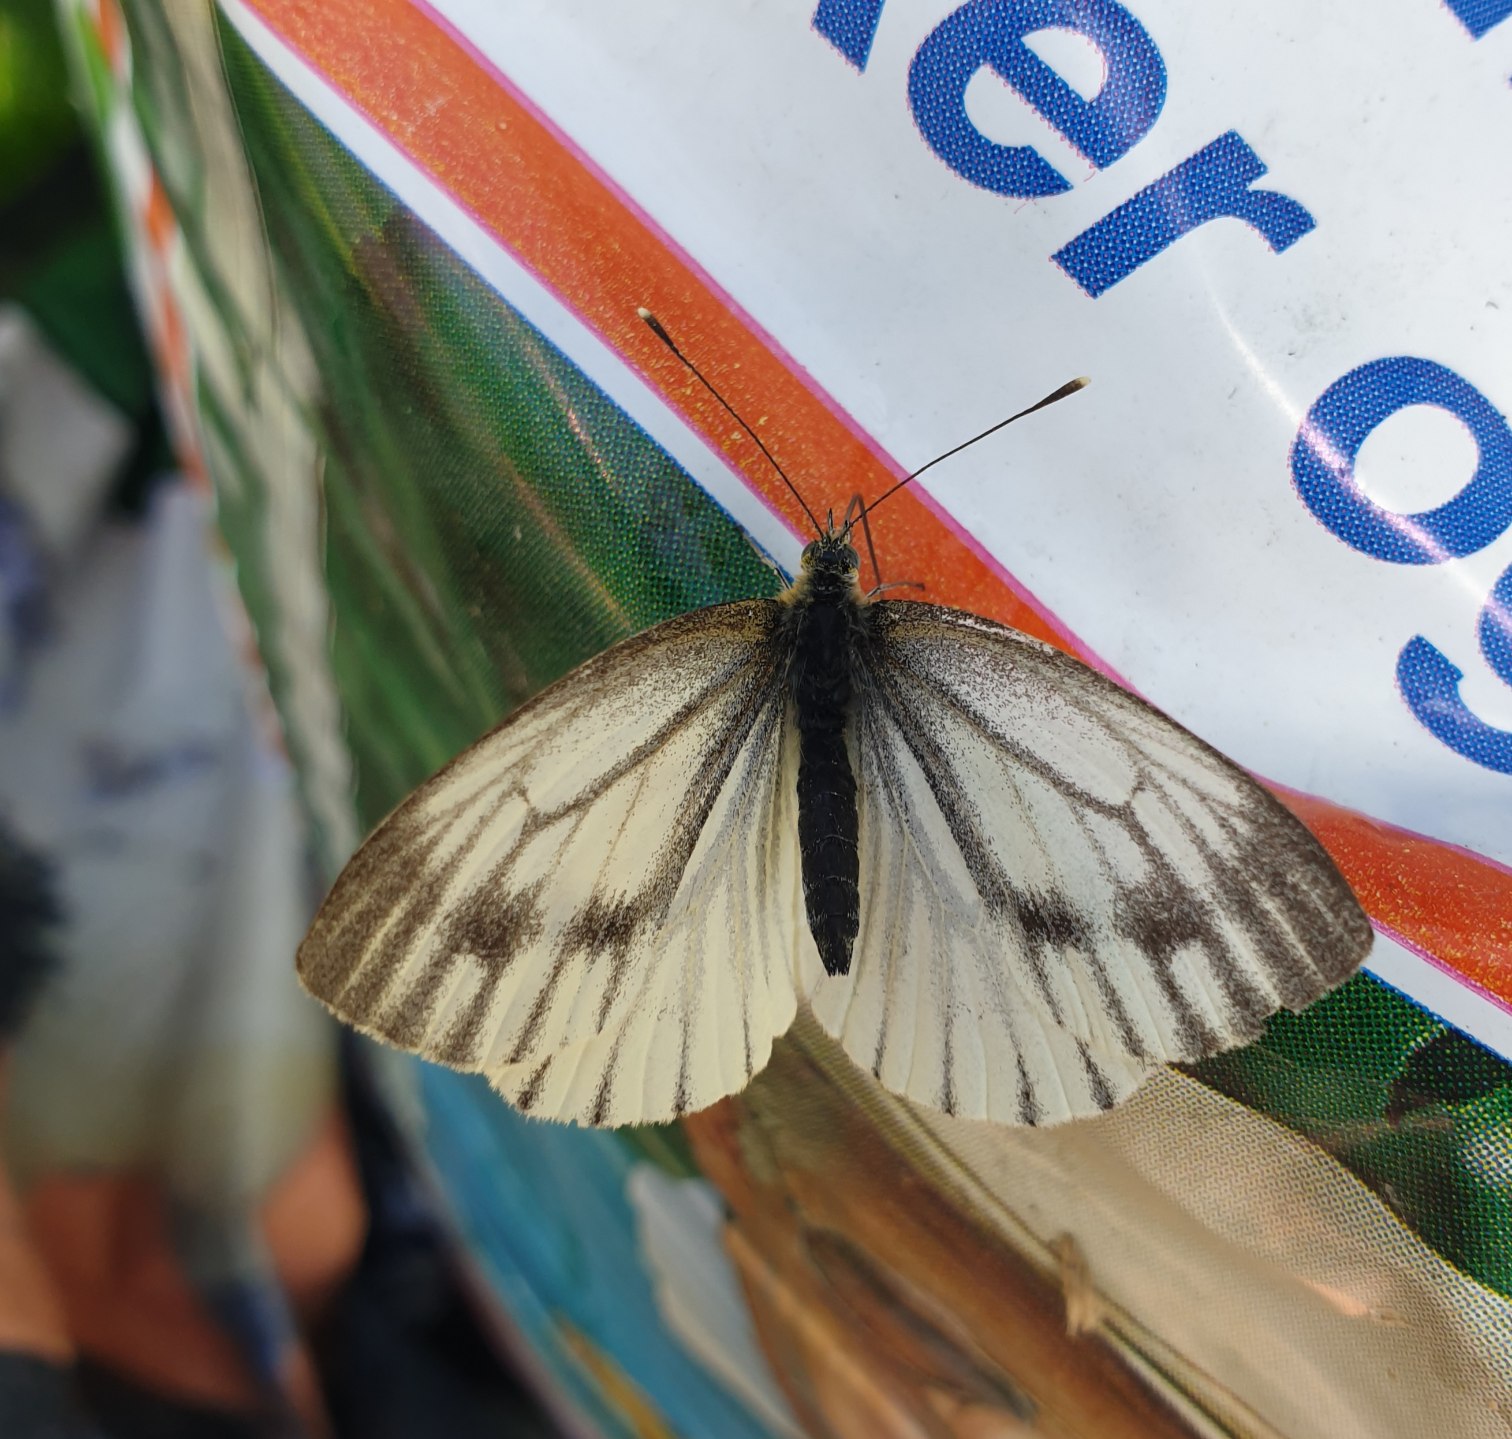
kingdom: Animalia
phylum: Arthropoda
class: Insecta
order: Lepidoptera
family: Pieridae
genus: Pieris
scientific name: Pieris napi
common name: Grønåret kålsommerfugl
